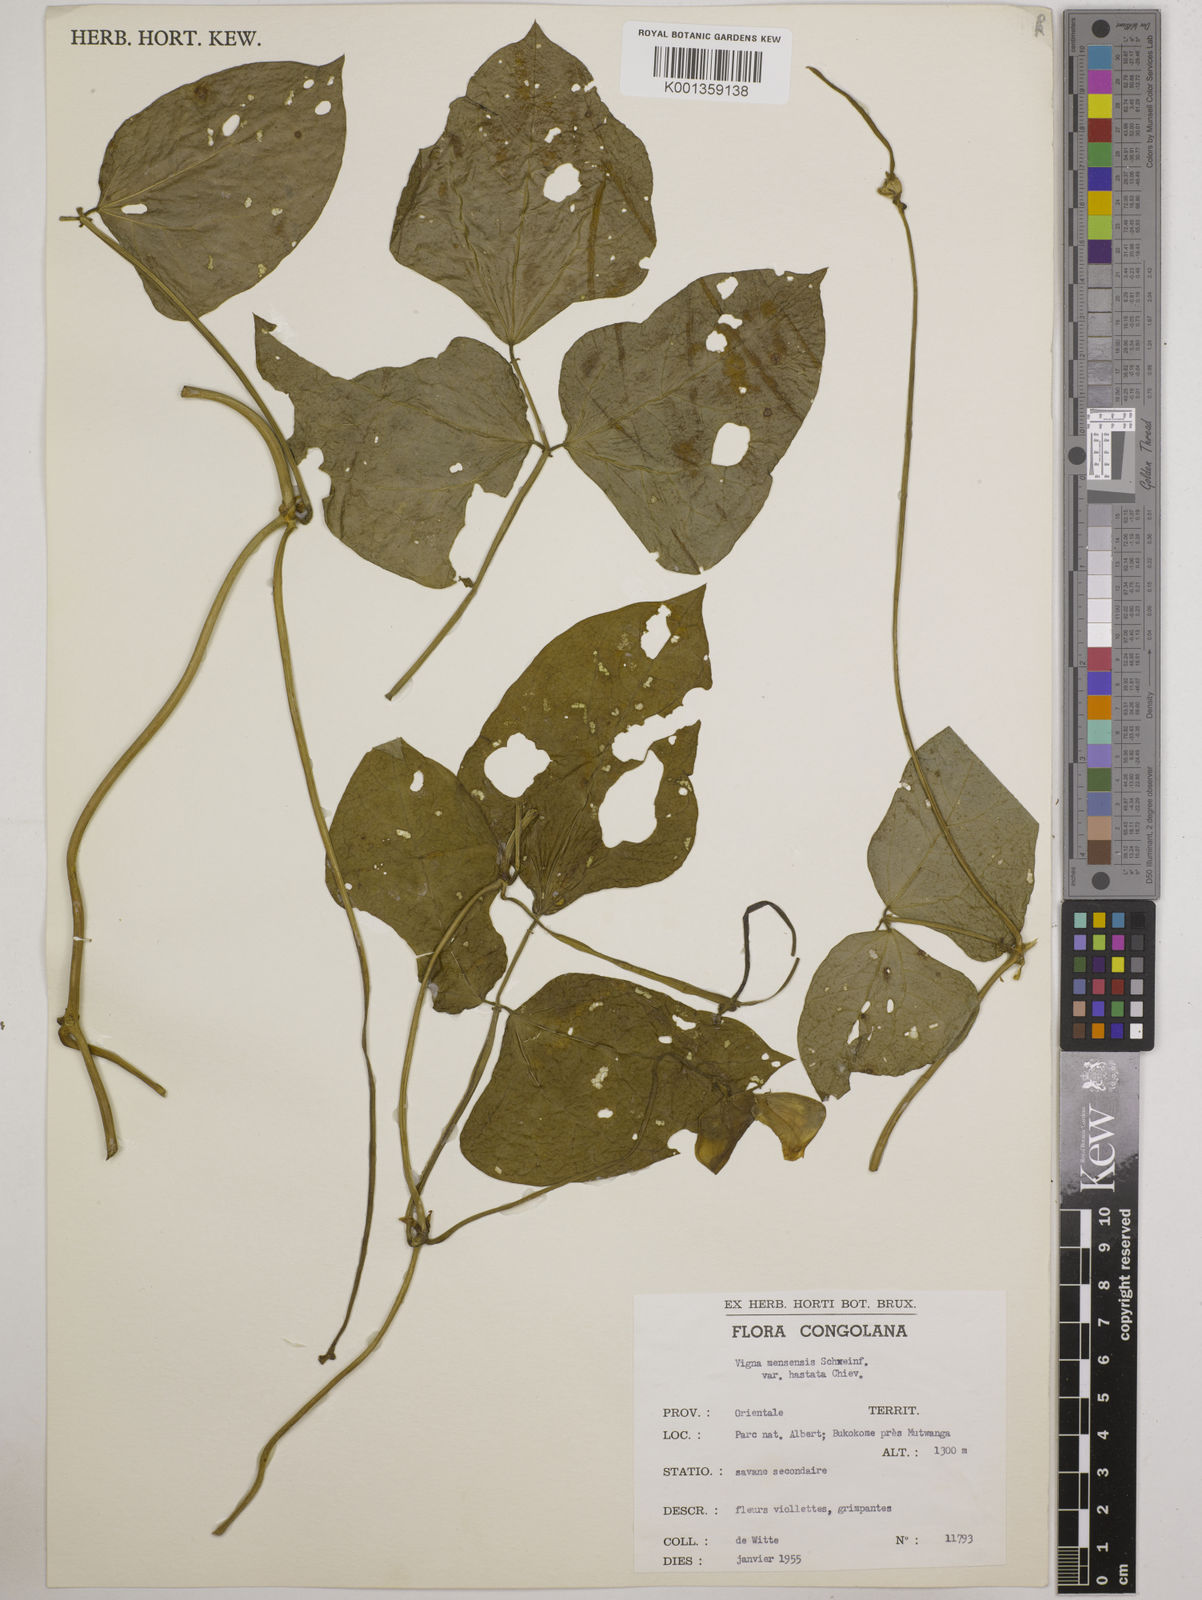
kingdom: Plantae
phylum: Tracheophyta
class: Magnoliopsida
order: Fabales
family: Fabaceae
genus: Vigna
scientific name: Vigna unguiculata
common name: Cowpea
